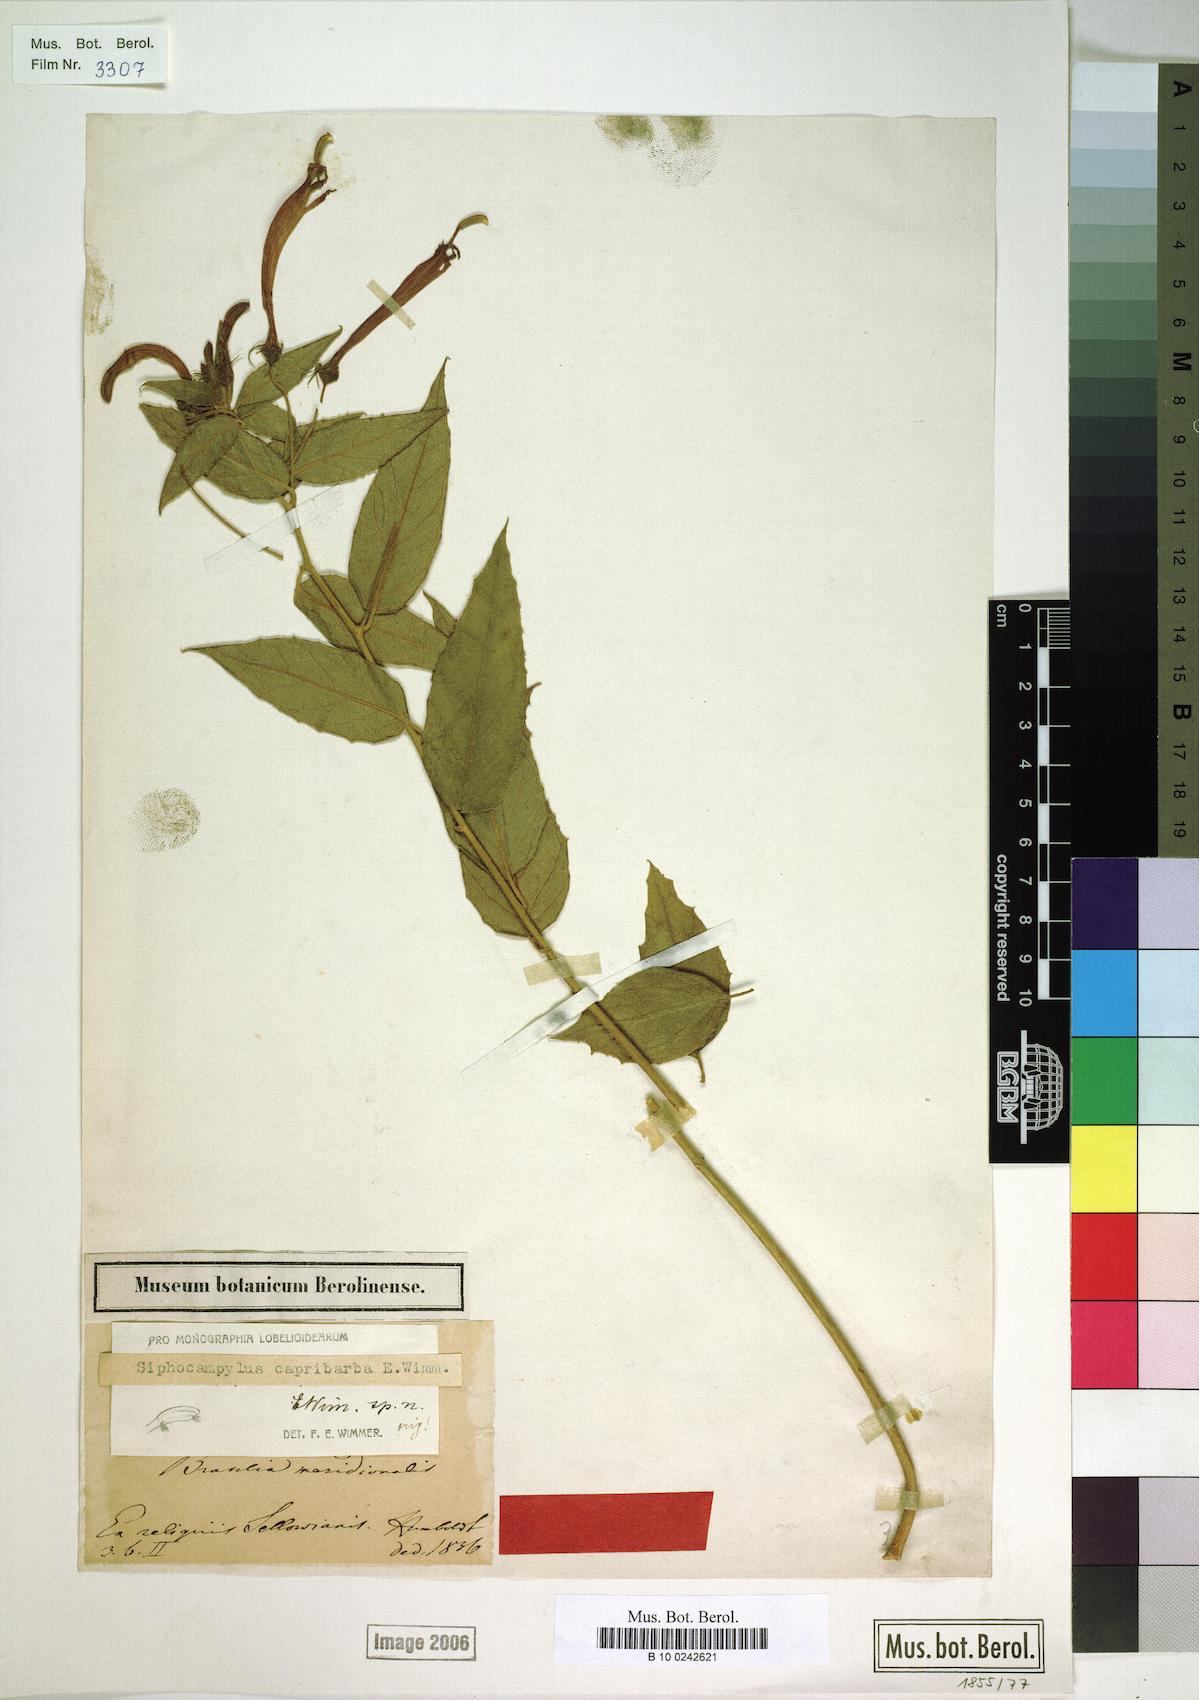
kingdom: Plantae
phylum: Tracheophyta
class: Magnoliopsida
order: Asterales
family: Campanulaceae
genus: Siphocampylus
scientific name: Siphocampylus nitidus
